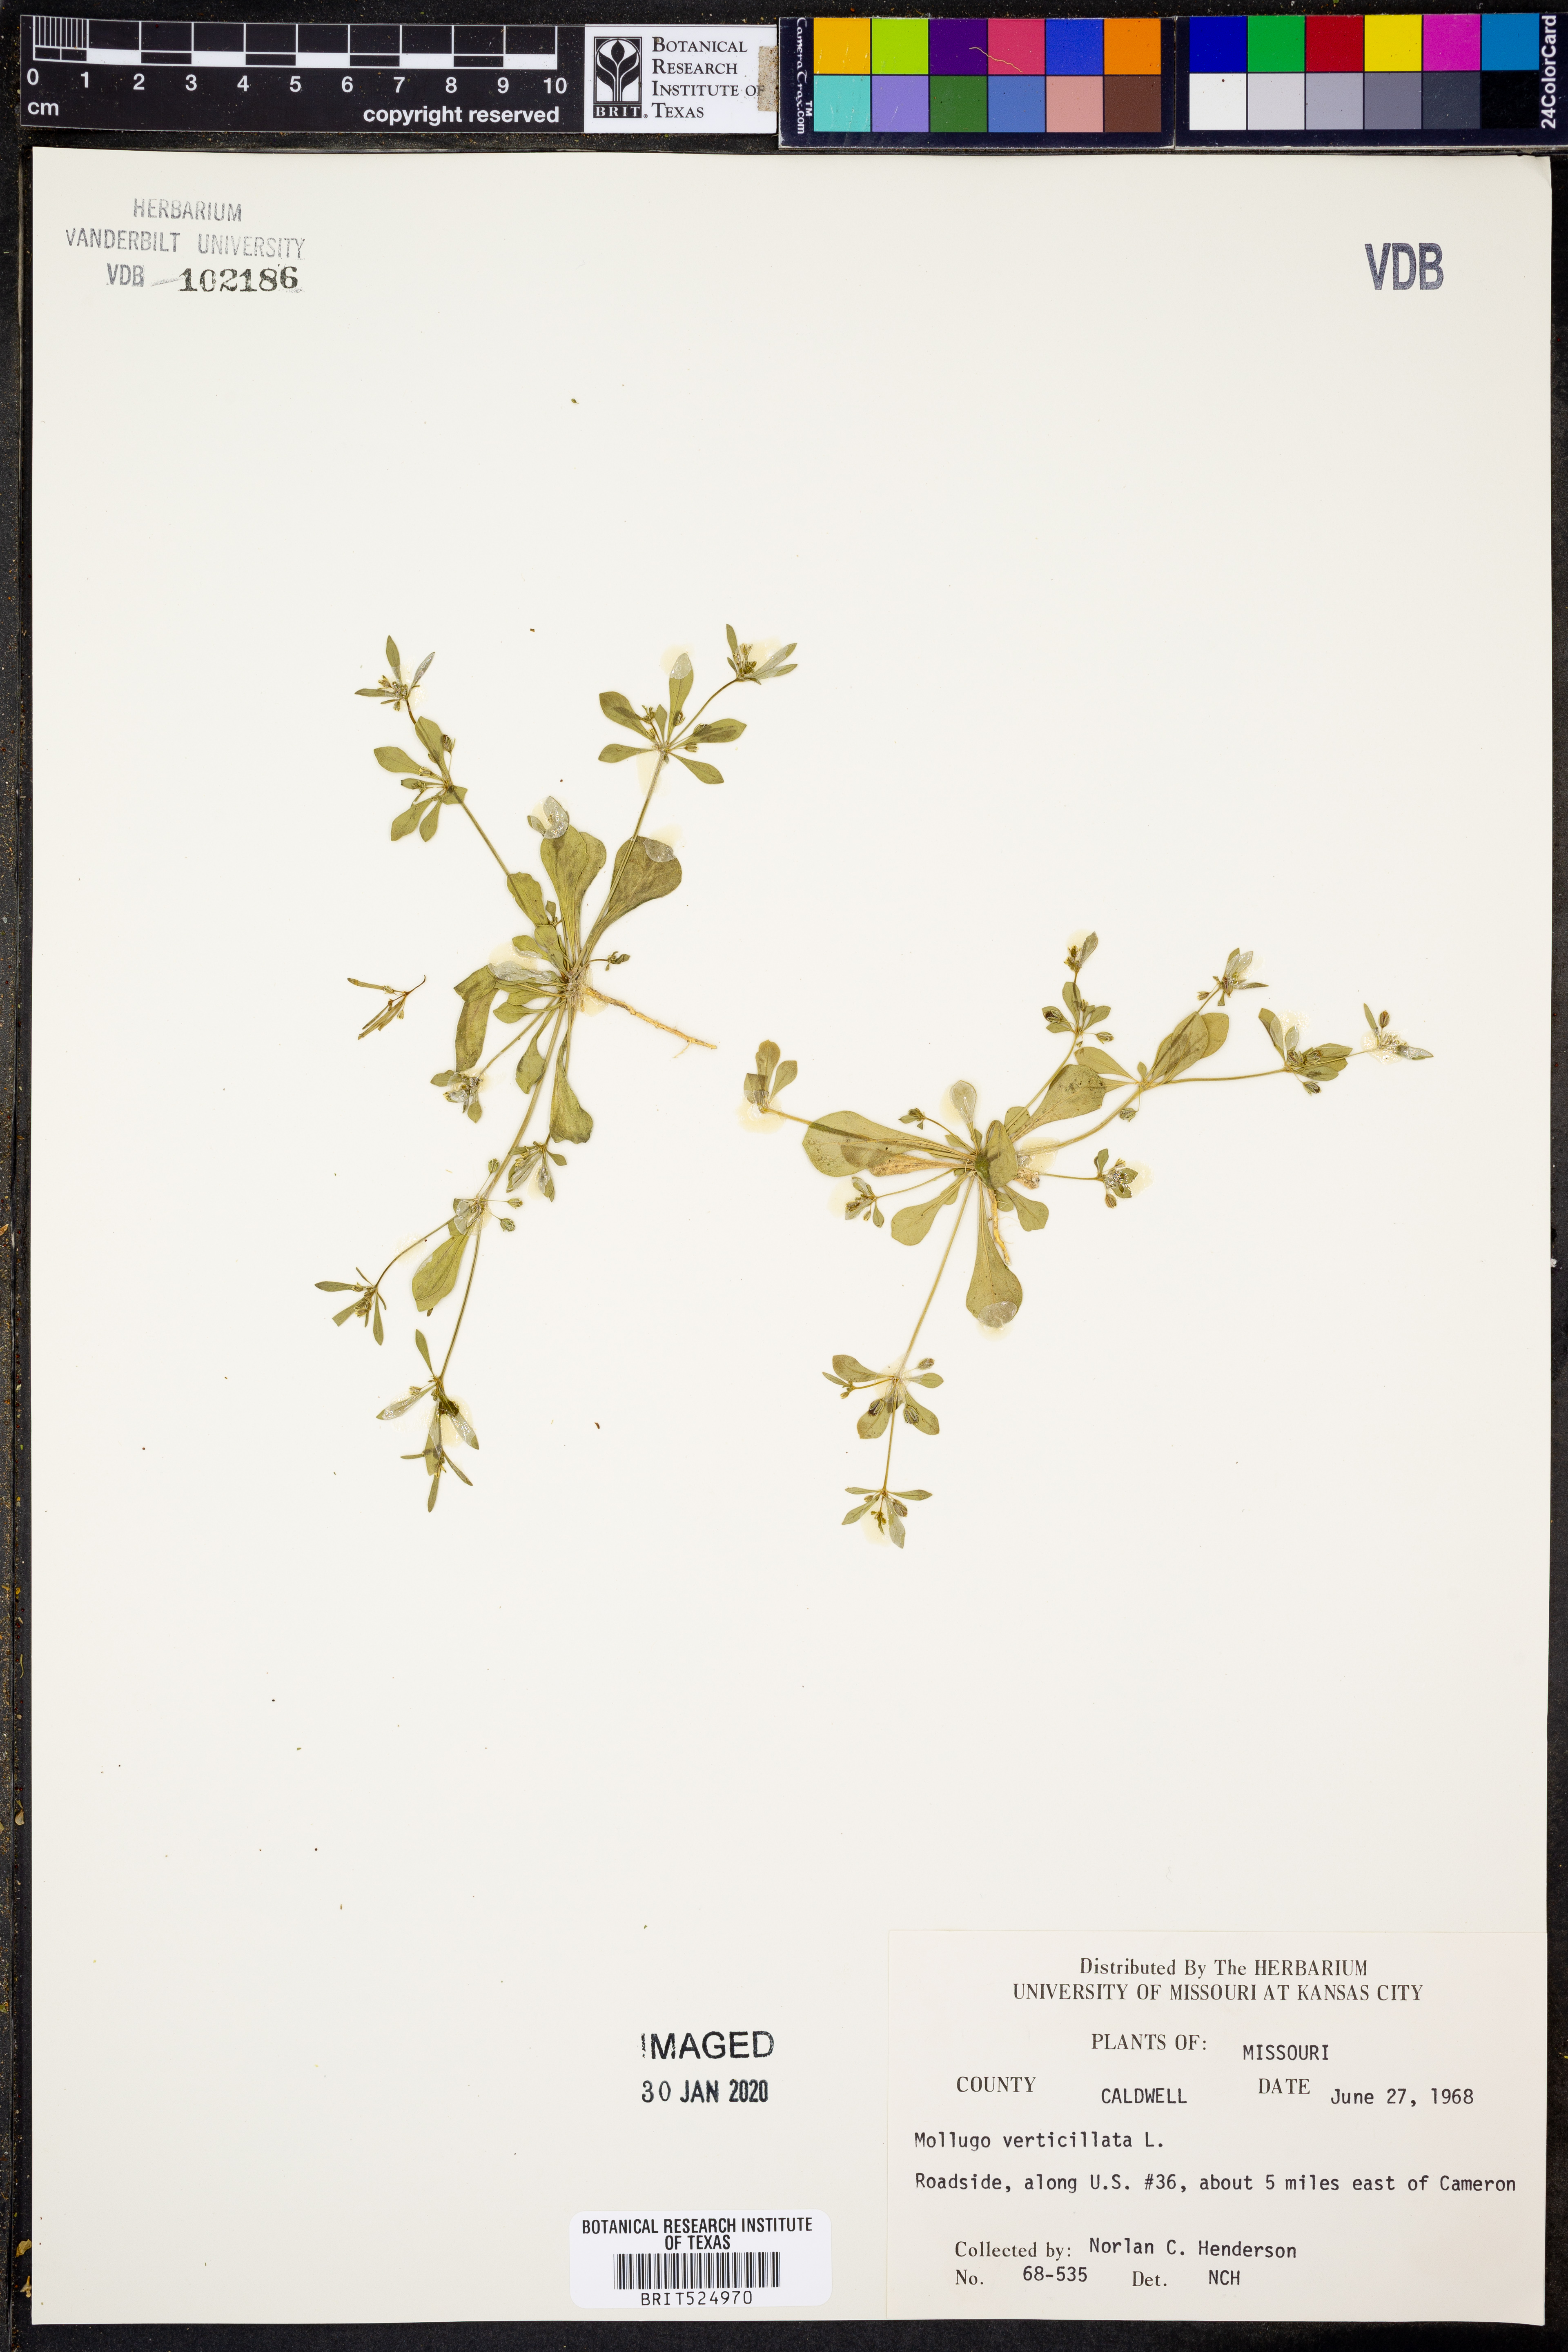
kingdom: Plantae
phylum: Tracheophyta
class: Magnoliopsida
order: Caryophyllales
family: Molluginaceae
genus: Mollugo
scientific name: Mollugo verticillata
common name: Green carpetweed
